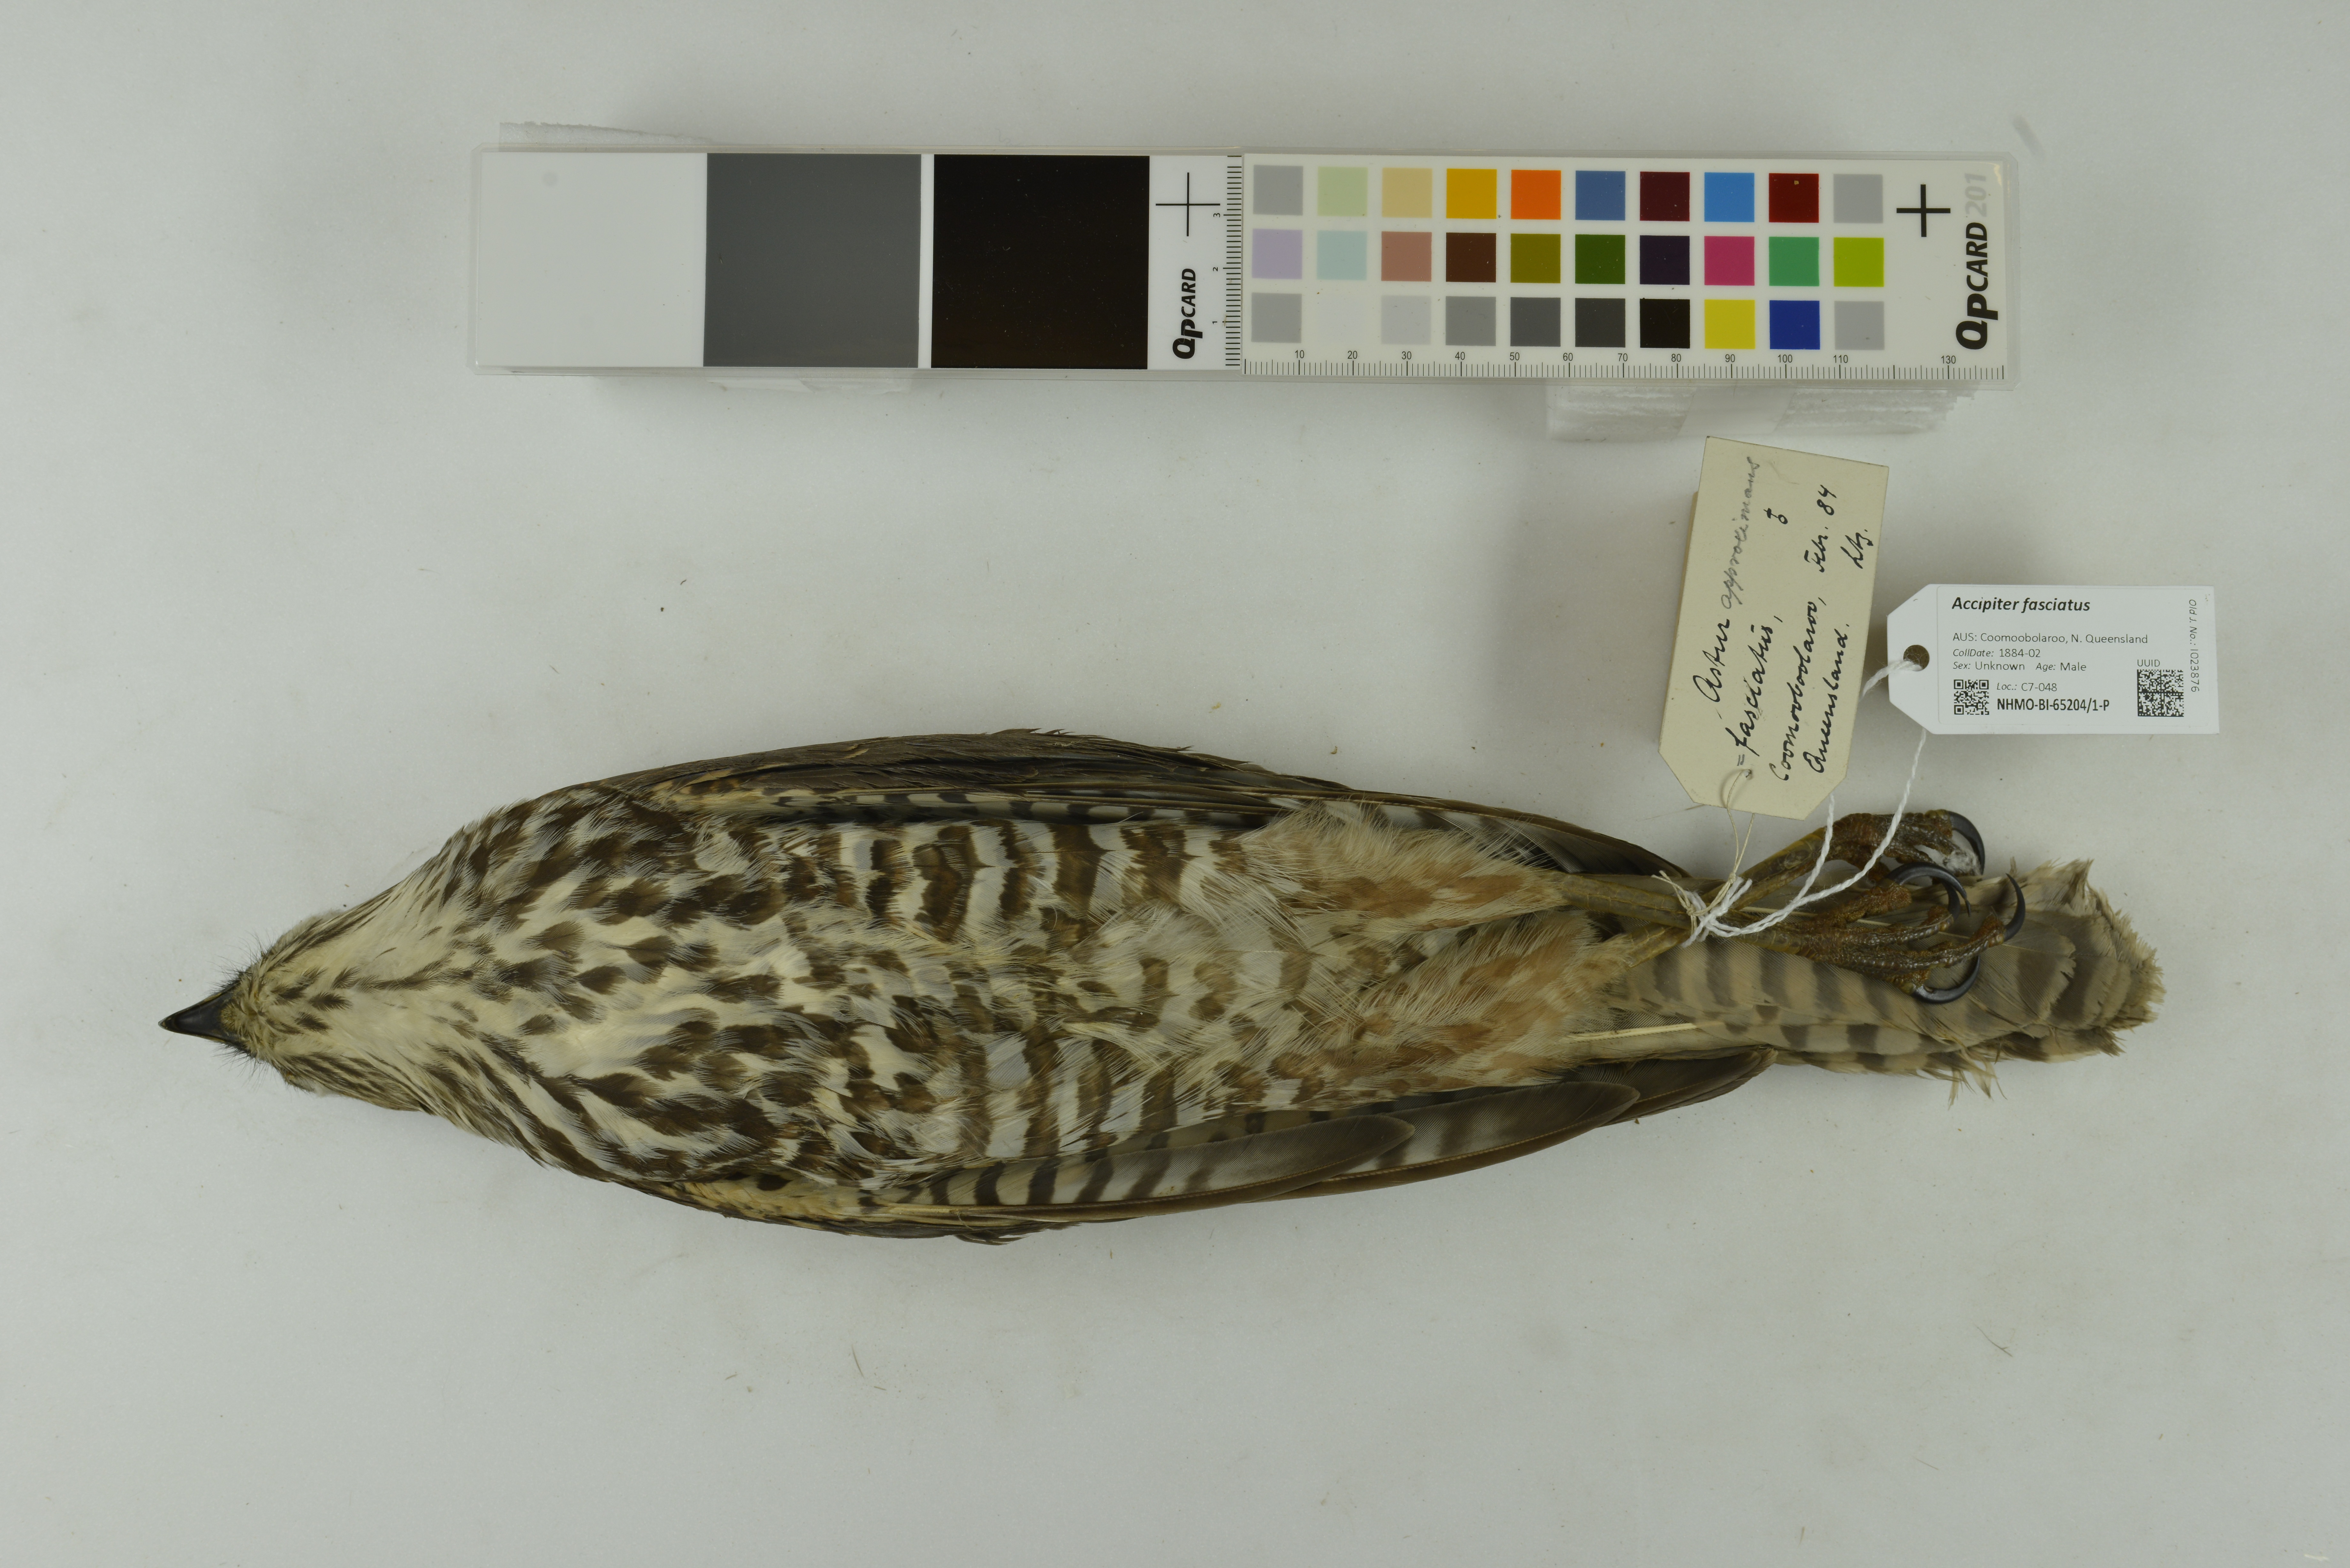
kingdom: Animalia
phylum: Chordata
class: Aves
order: Accipitriformes
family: Accipitridae
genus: Accipiter
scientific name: Accipiter fasciatus
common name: Brown goshawk
